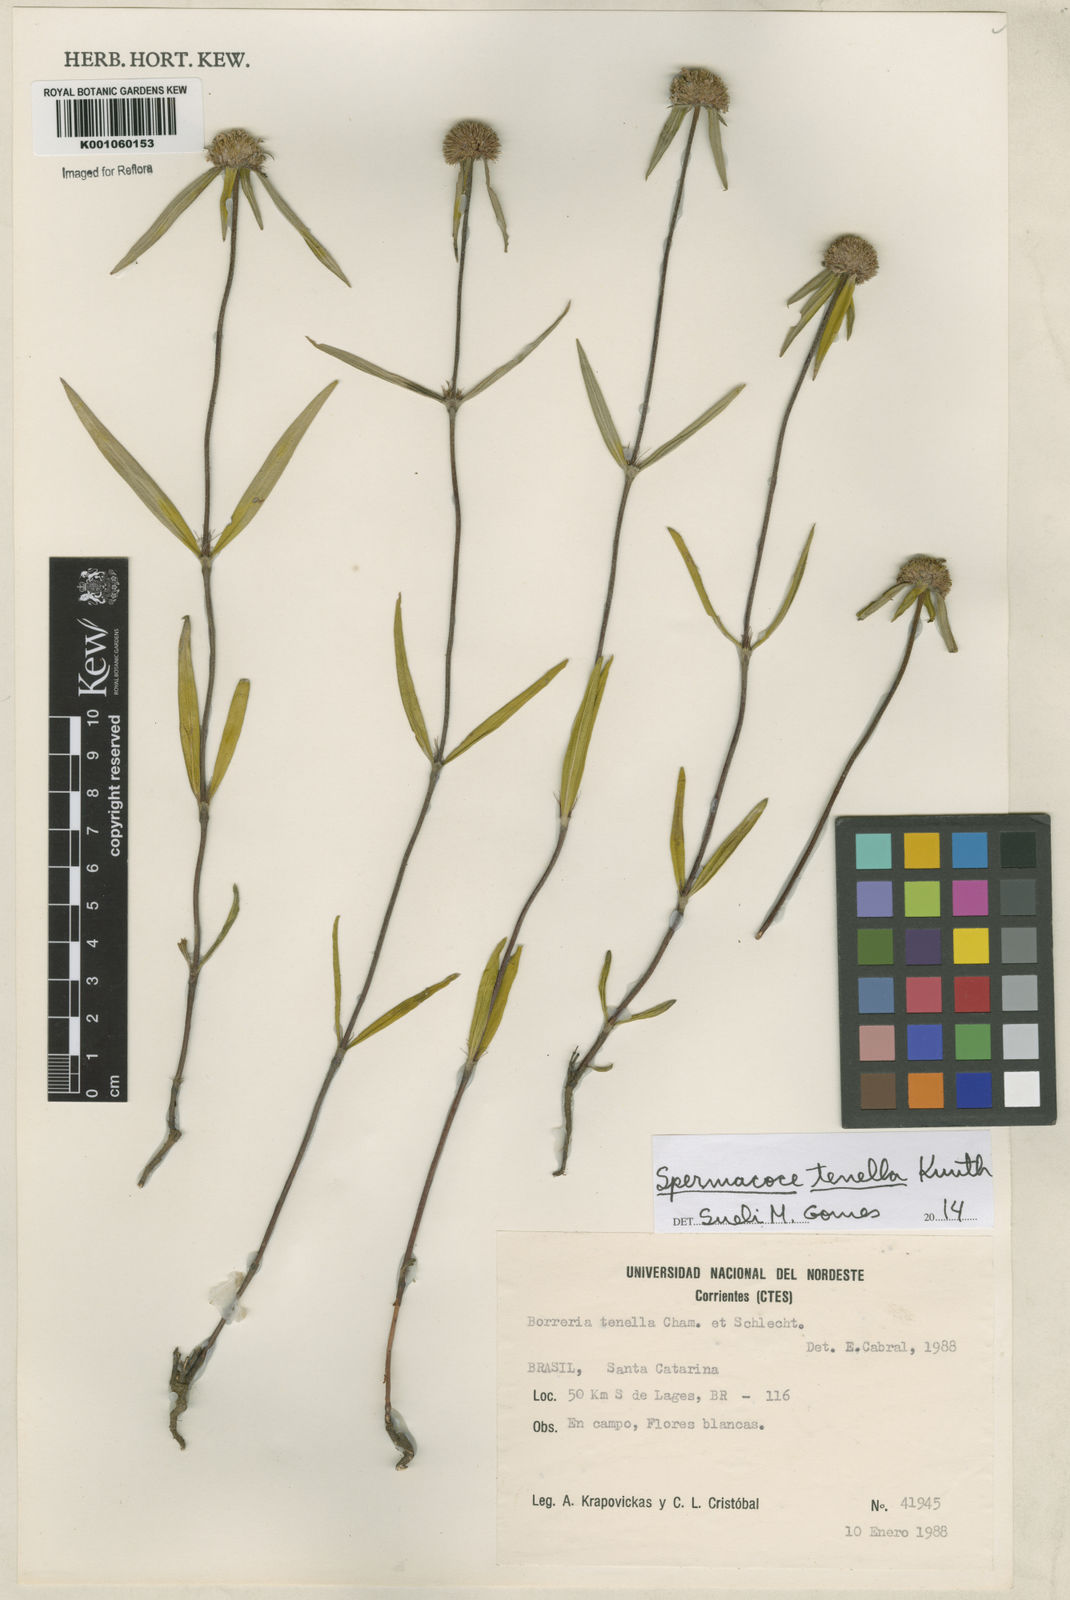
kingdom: Plantae
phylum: Tracheophyta
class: Magnoliopsida
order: Gentianales
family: Rubiaceae
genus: Spermacoce
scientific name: Spermacoce orinocensis
